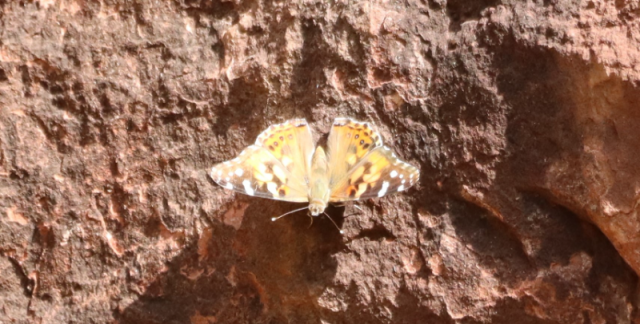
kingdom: Animalia
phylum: Arthropoda
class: Insecta
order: Lepidoptera
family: Nymphalidae
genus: Vanessa
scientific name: Vanessa cardui
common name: Painted Lady
